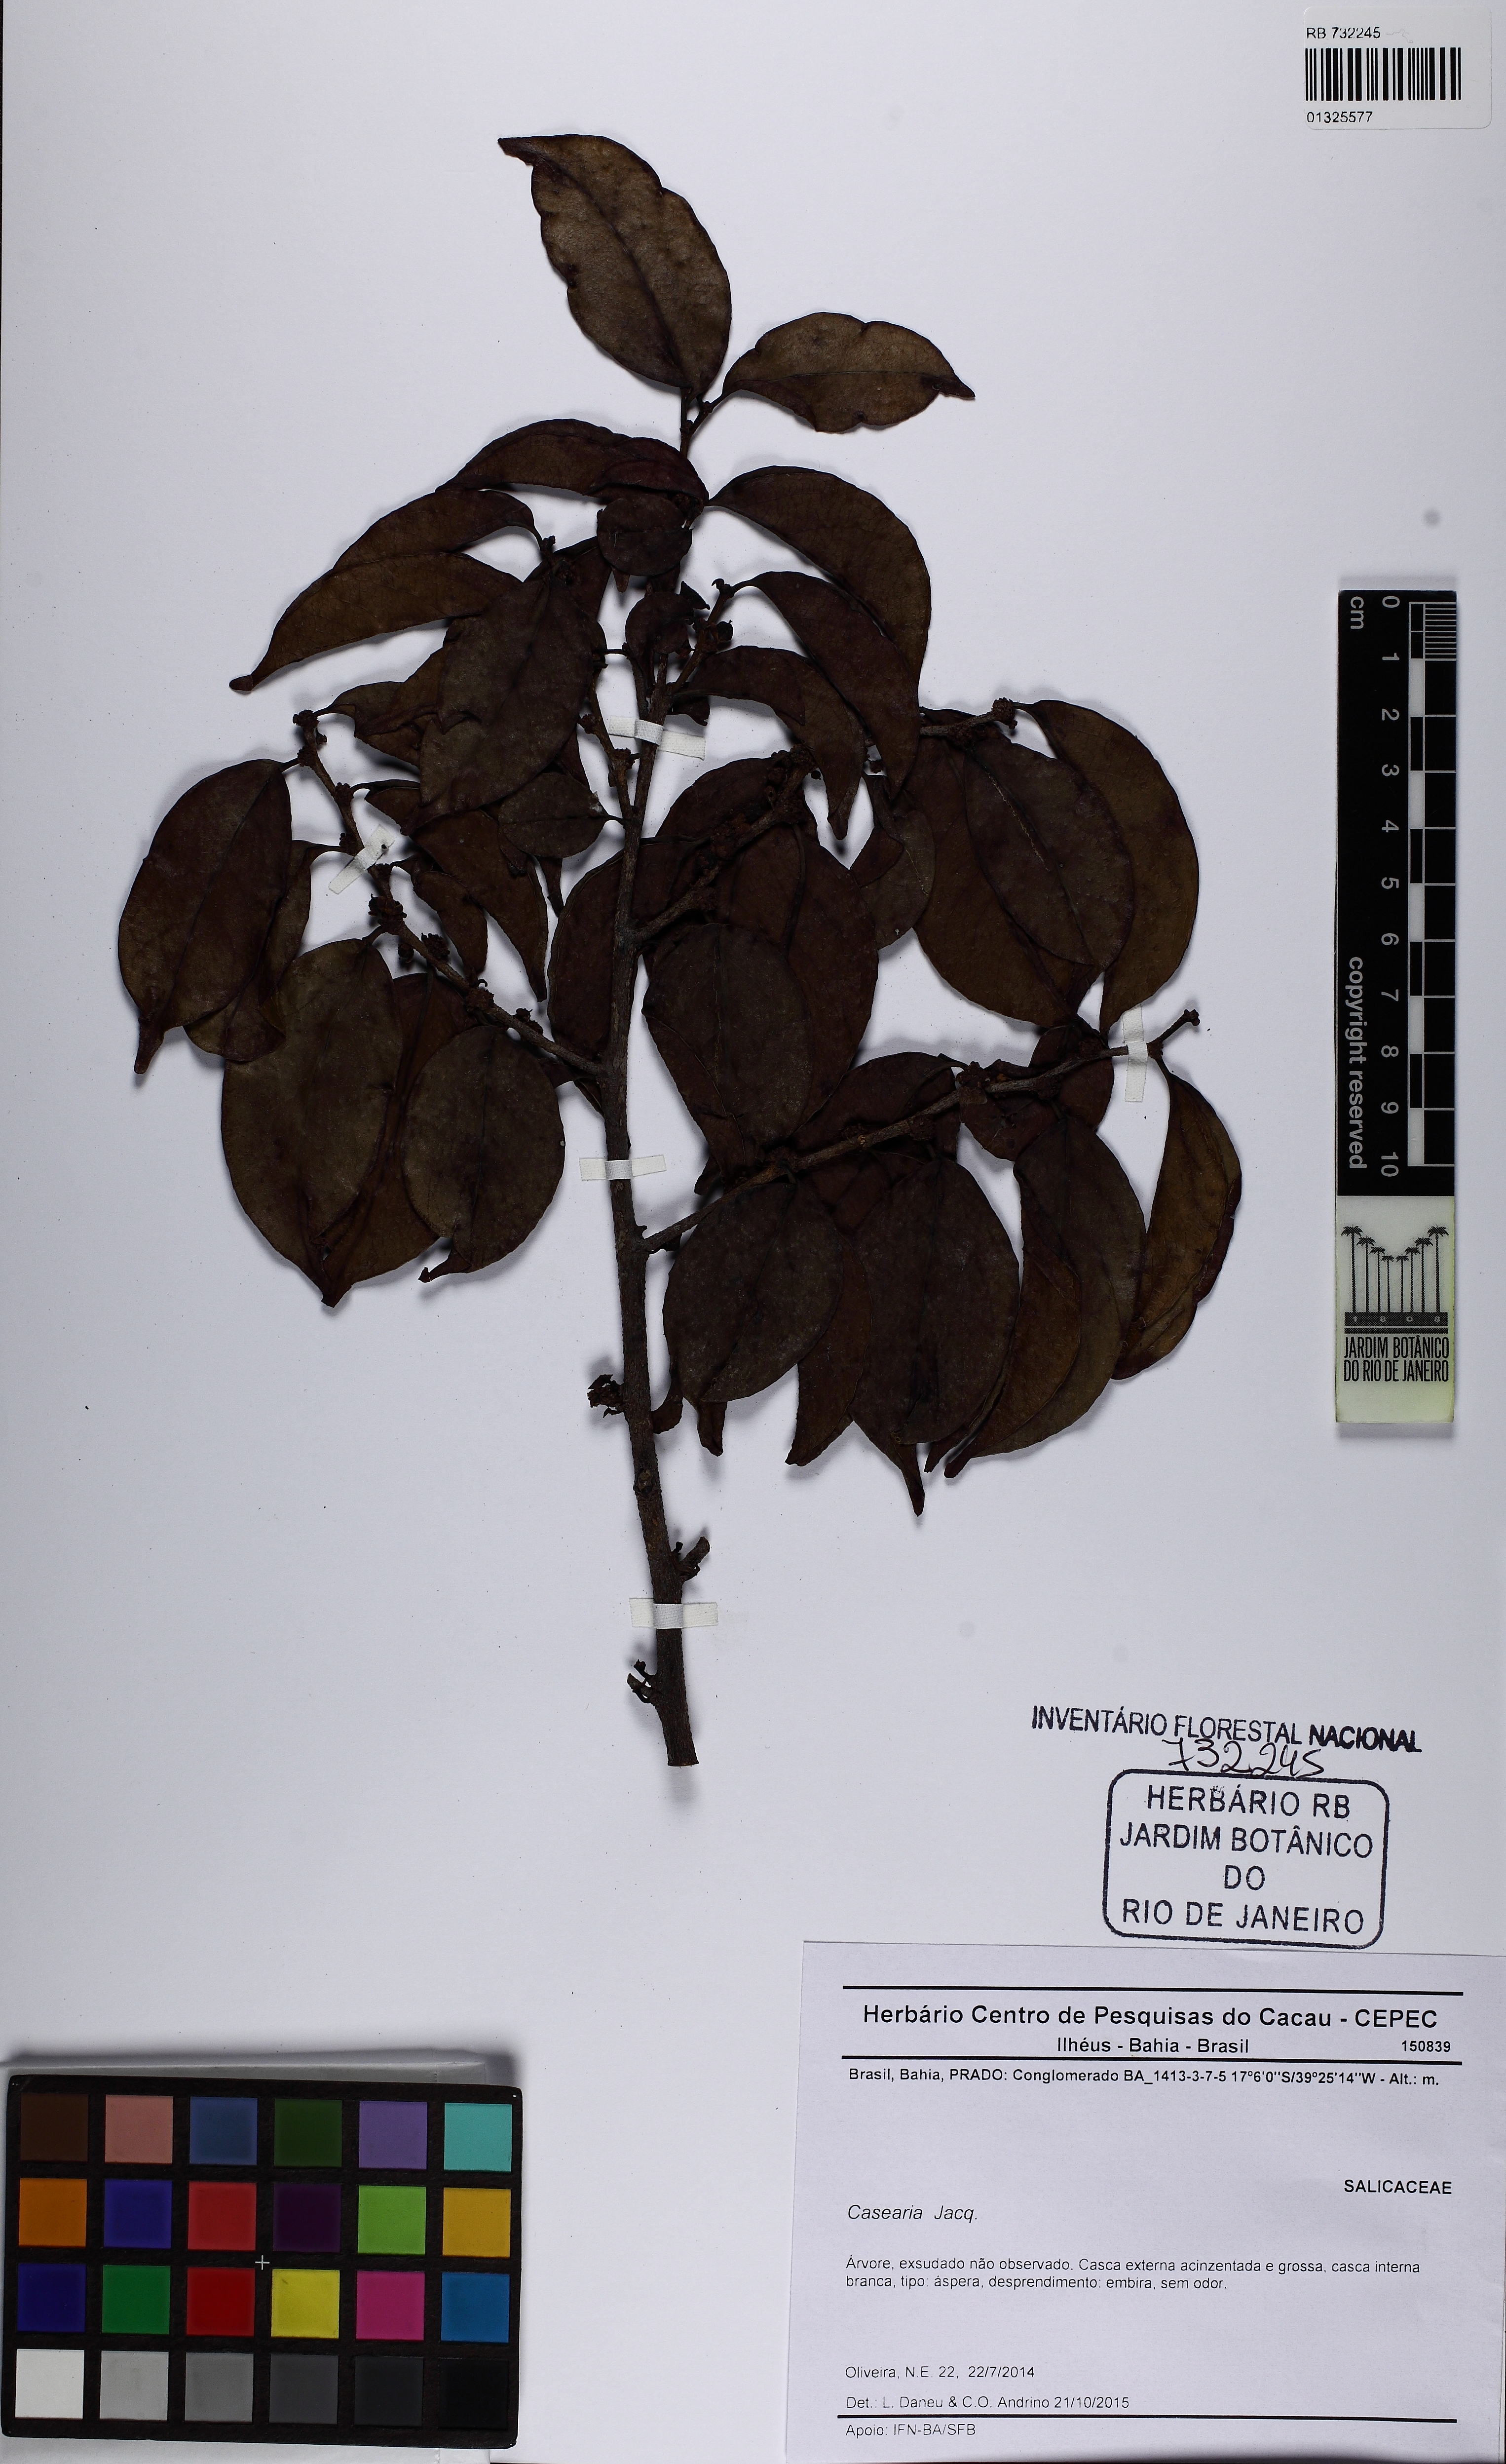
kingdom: Plantae
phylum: Tracheophyta
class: Magnoliopsida
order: Malpighiales
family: Salicaceae
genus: Casearia
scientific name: Casearia
